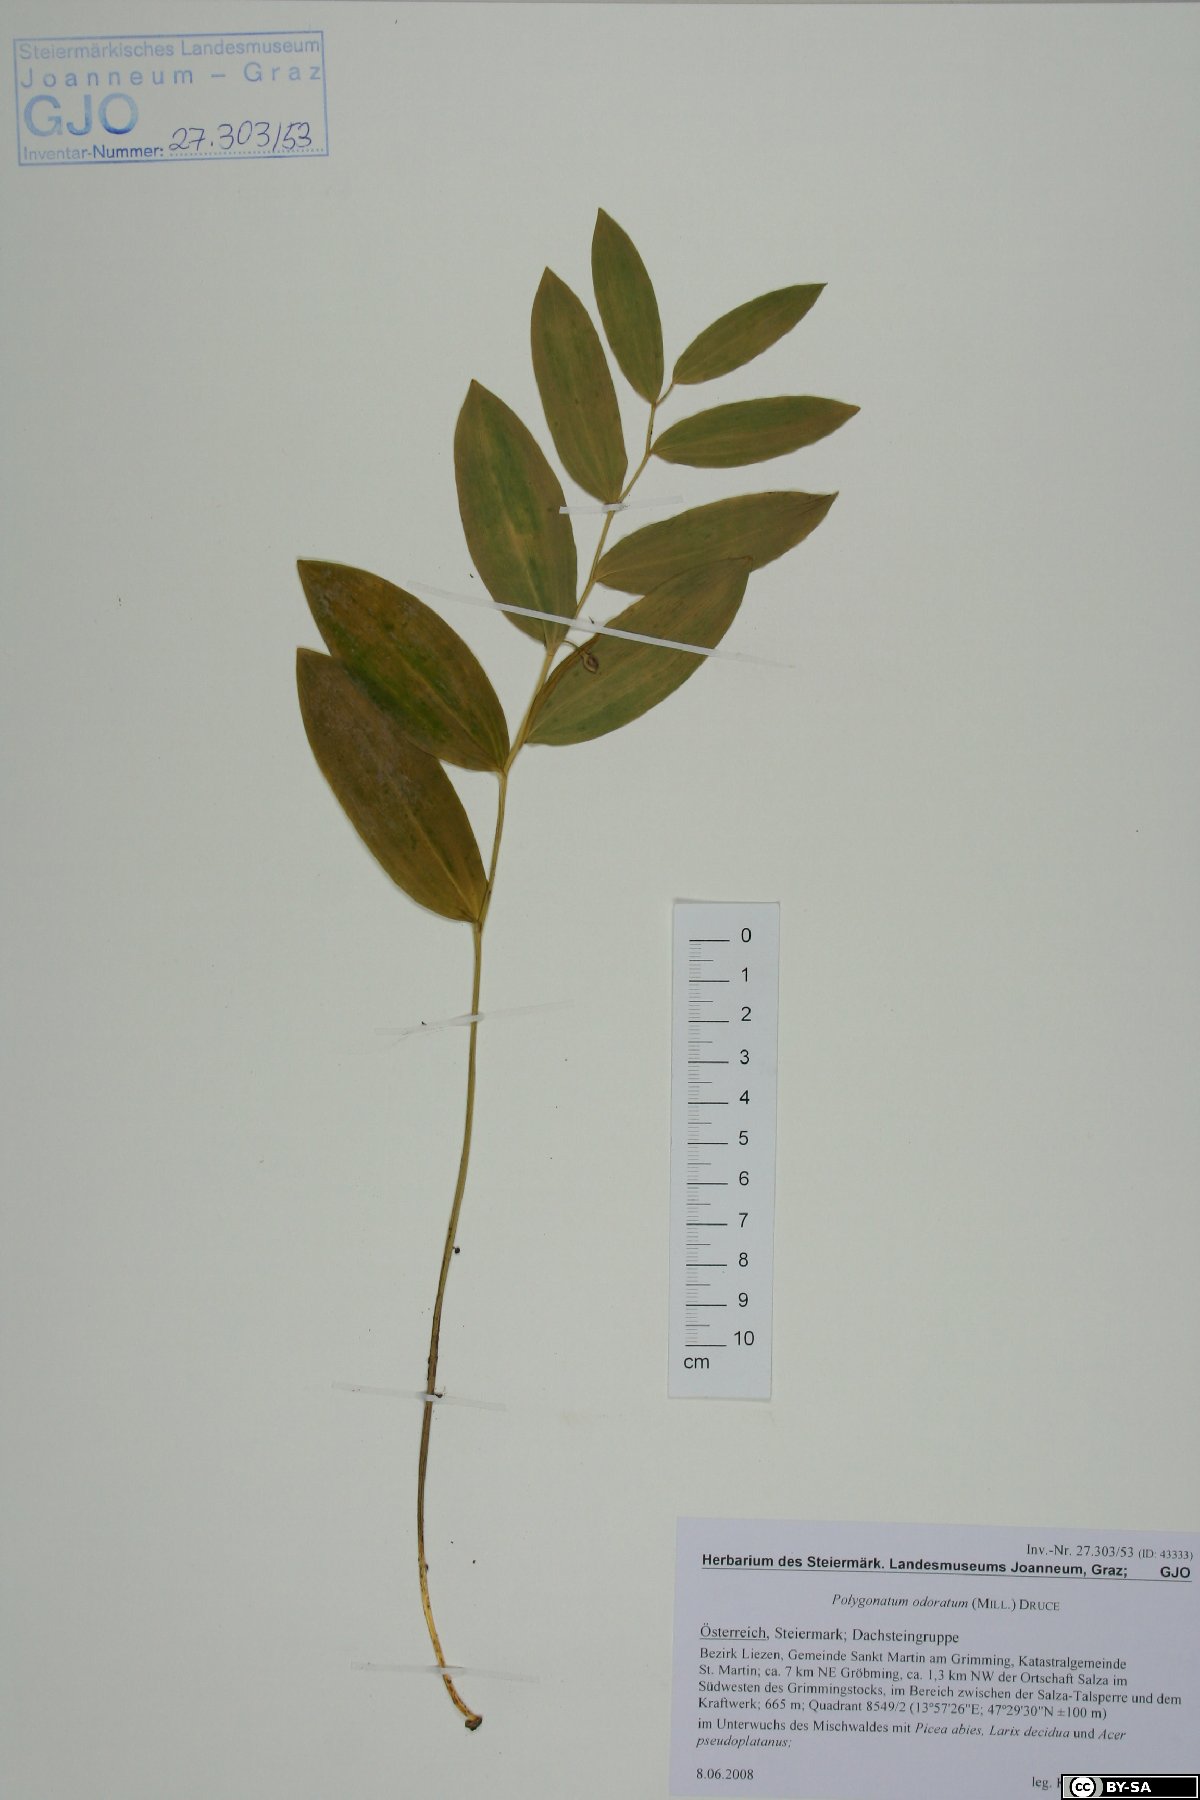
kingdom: Plantae
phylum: Tracheophyta
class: Liliopsida
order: Asparagales
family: Asparagaceae
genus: Polygonatum
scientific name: Polygonatum odoratum
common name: Angular solomon's-seal
